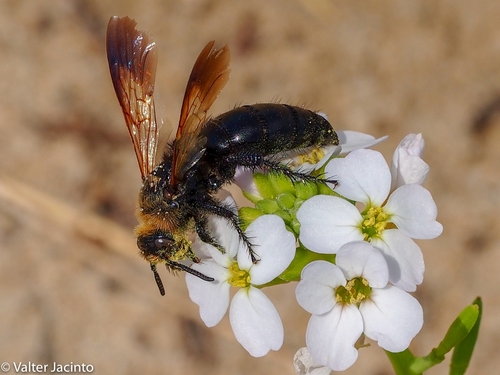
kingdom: Animalia
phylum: Arthropoda
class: Insecta
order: Hymenoptera
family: Scoliidae
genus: Campsomeriella
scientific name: Campsomeriella thoracica
